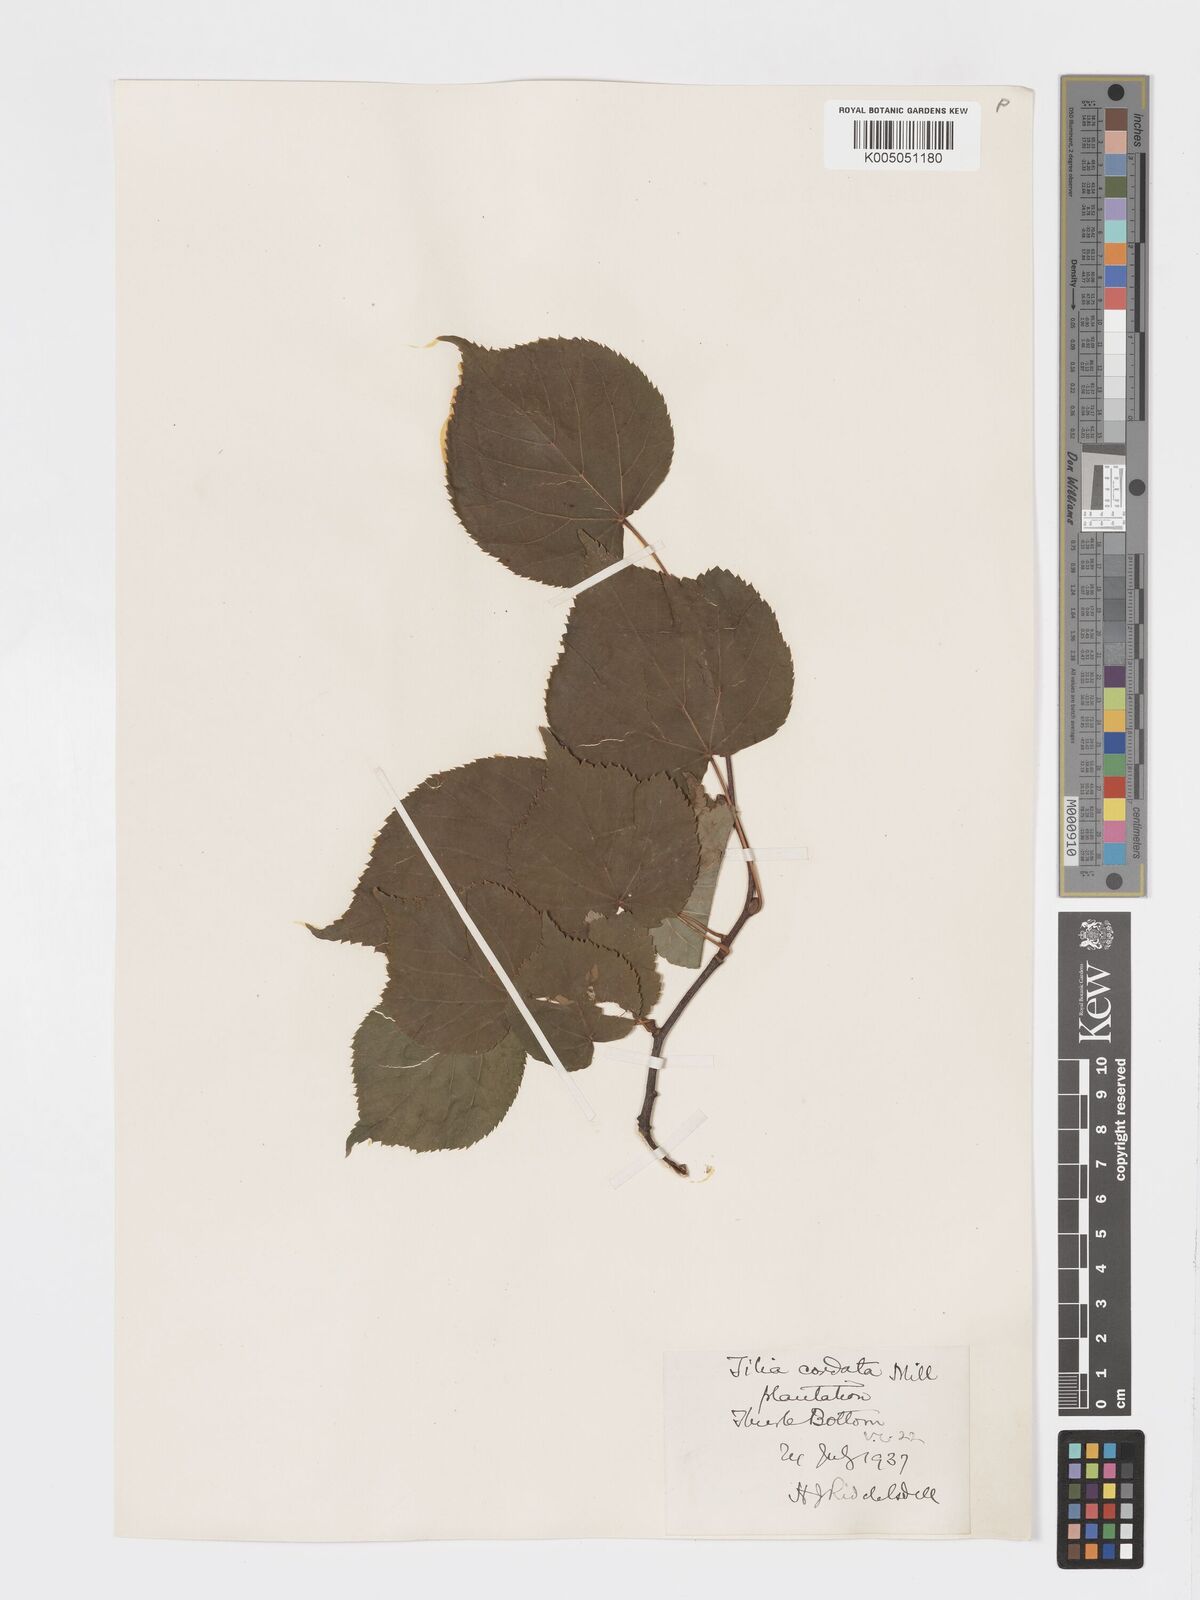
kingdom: Plantae
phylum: Tracheophyta
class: Magnoliopsida
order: Malvales
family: Malvaceae
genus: Tilia
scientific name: Tilia cordata
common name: Small-leaved lime
